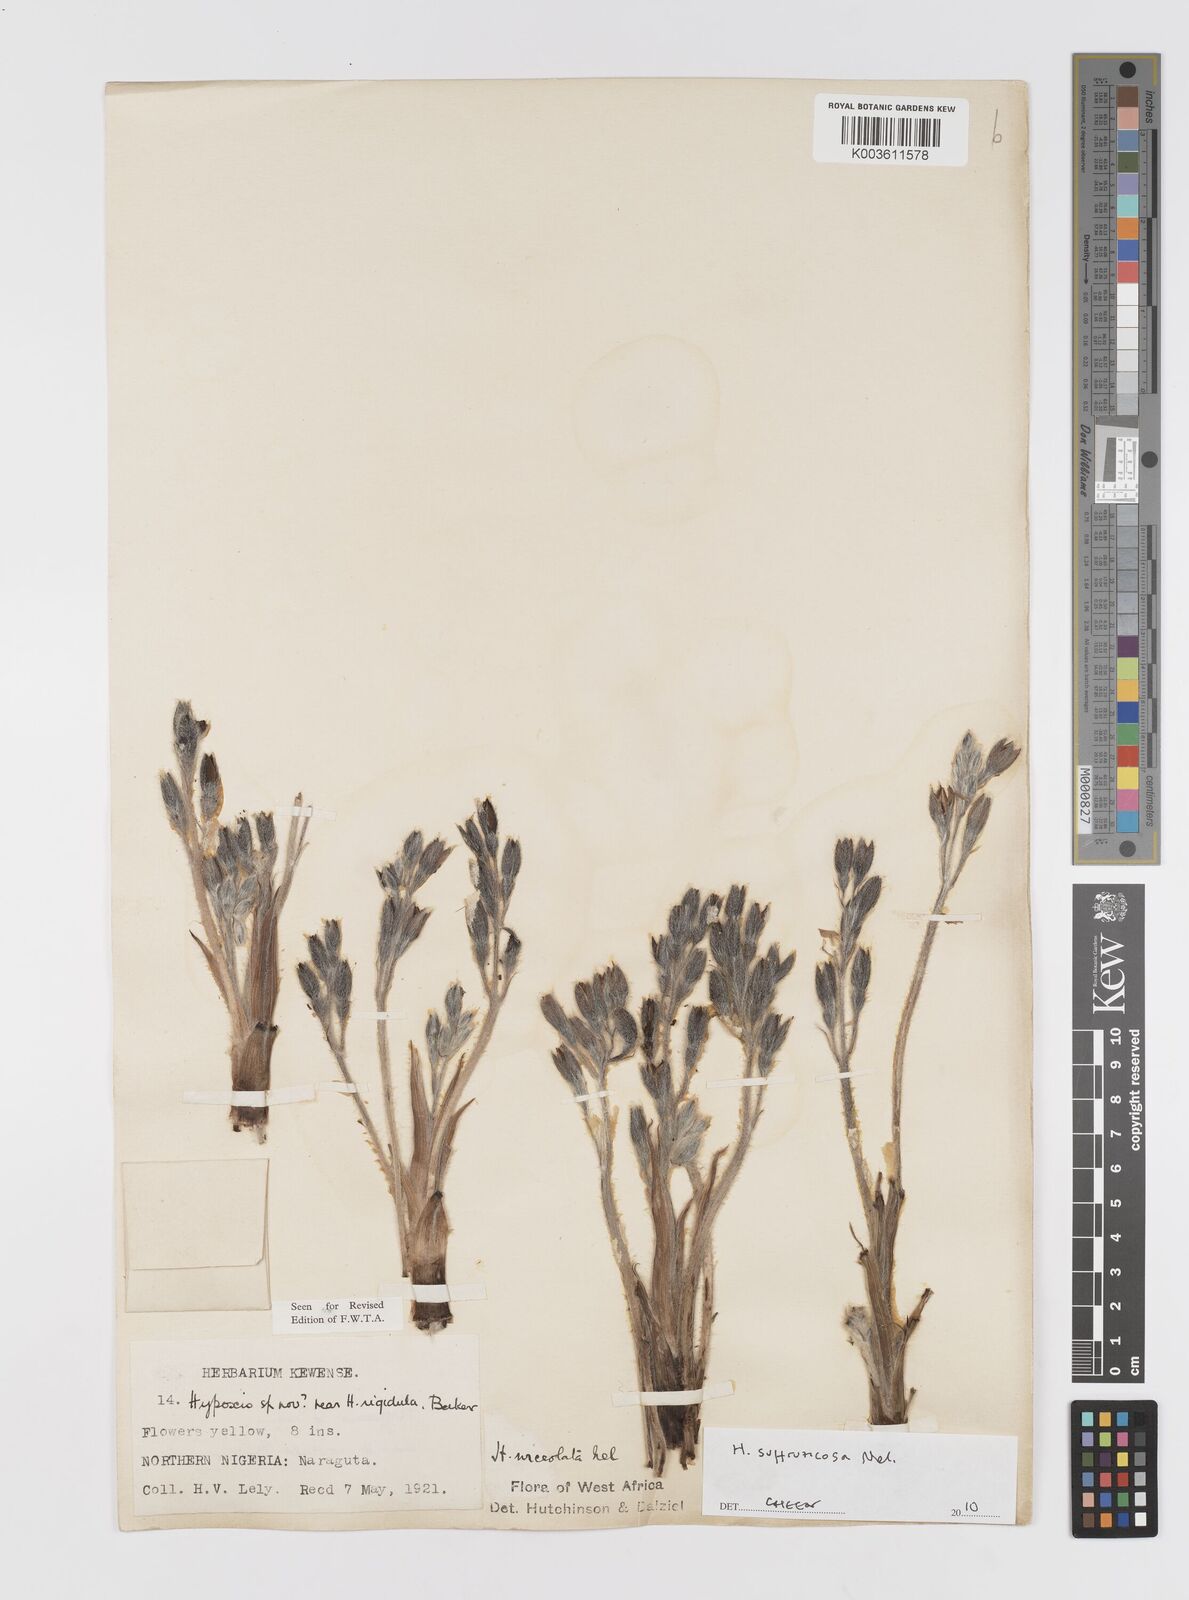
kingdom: Plantae
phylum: Tracheophyta
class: Liliopsida
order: Asparagales
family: Hypoxidaceae
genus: Hypoxis
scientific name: Hypoxis suffruticosa
